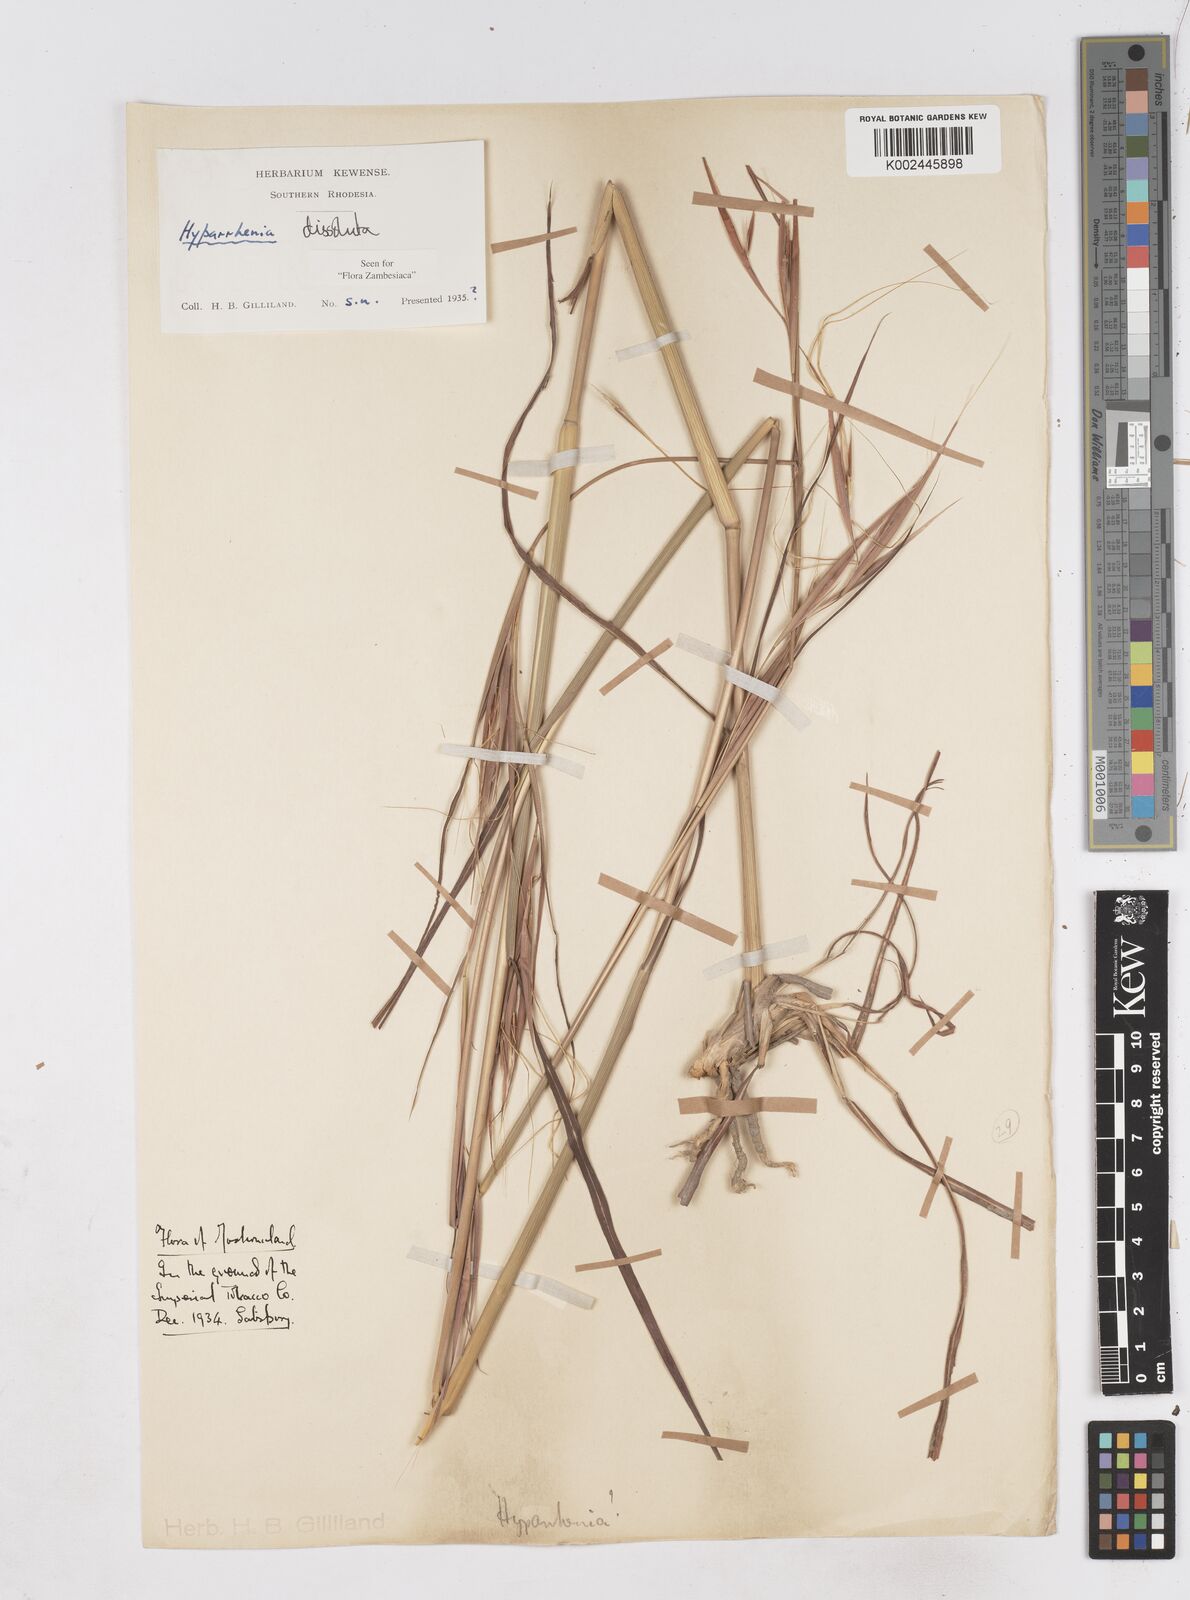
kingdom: Plantae
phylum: Tracheophyta
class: Liliopsida
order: Poales
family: Poaceae
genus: Hyperthelia
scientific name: Hyperthelia dissoluta
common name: Yellow thatching grass
